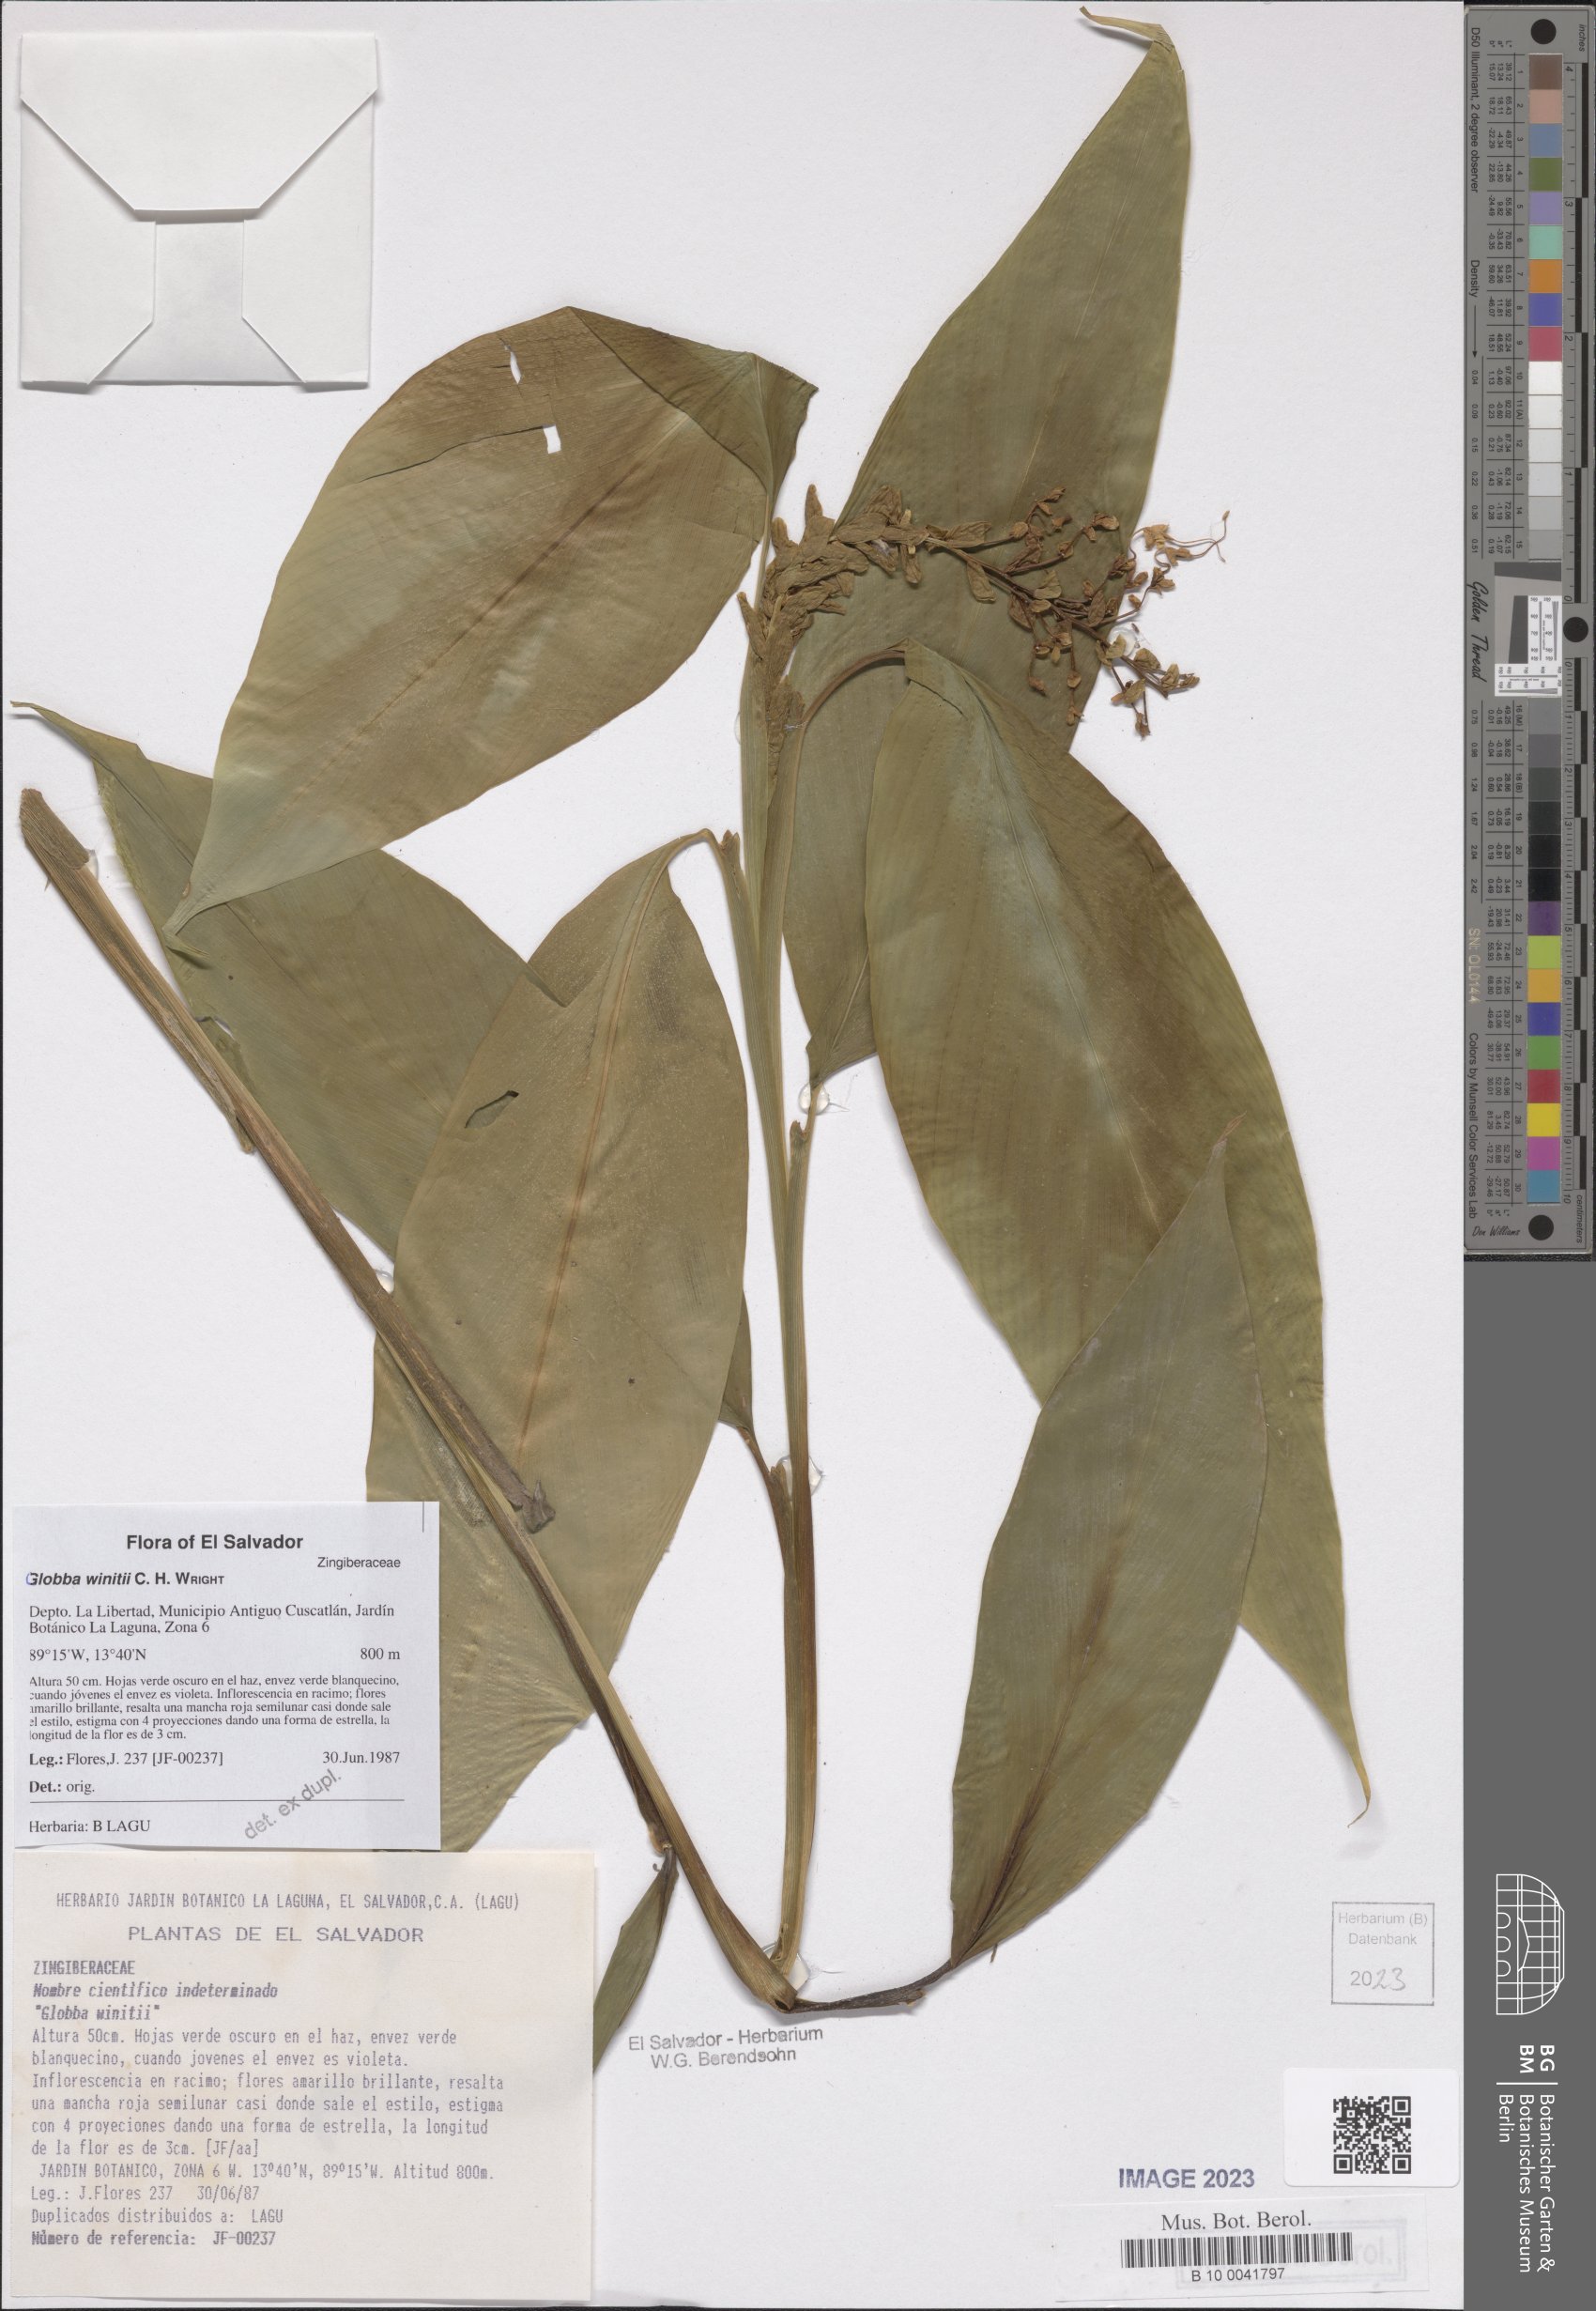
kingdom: Plantae
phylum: Tracheophyta
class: Liliopsida
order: Zingiberales
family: Zingiberaceae
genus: Globba
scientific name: Globba winitii
